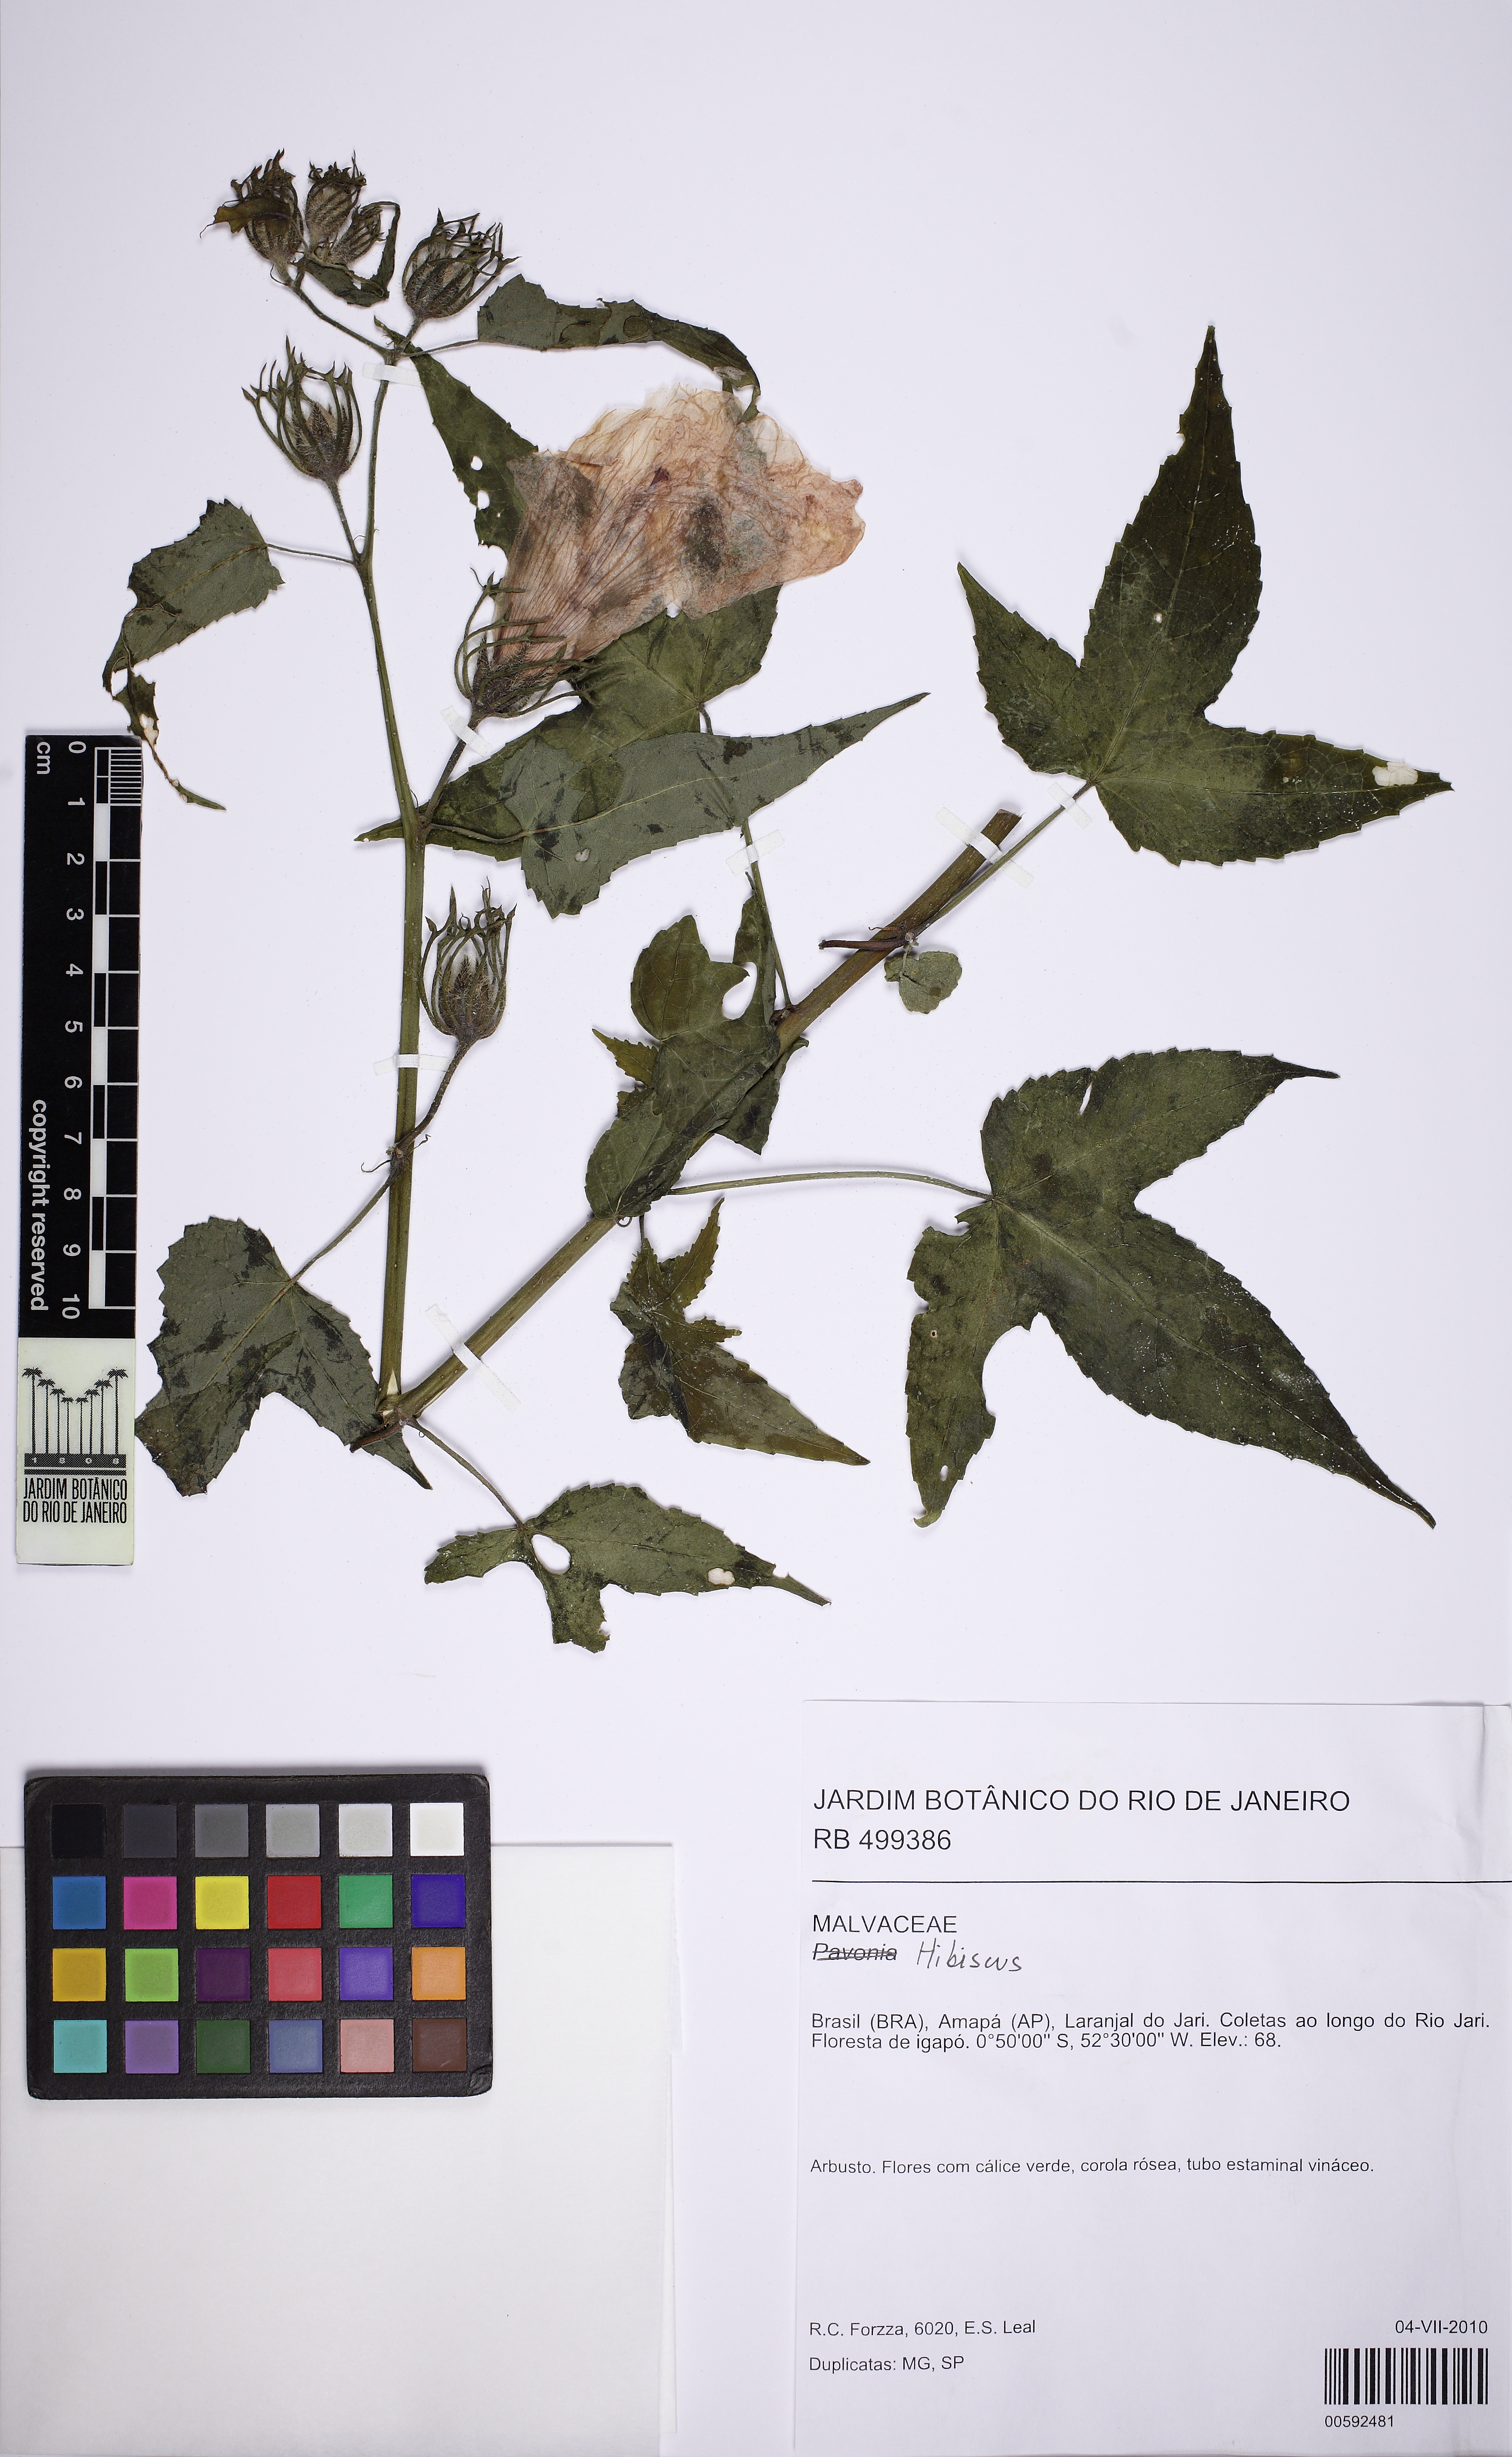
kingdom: Plantae
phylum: Tracheophyta
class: Magnoliopsida
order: Malvales
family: Malvaceae
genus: Hibiscus
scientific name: Hibiscus peruvianus
